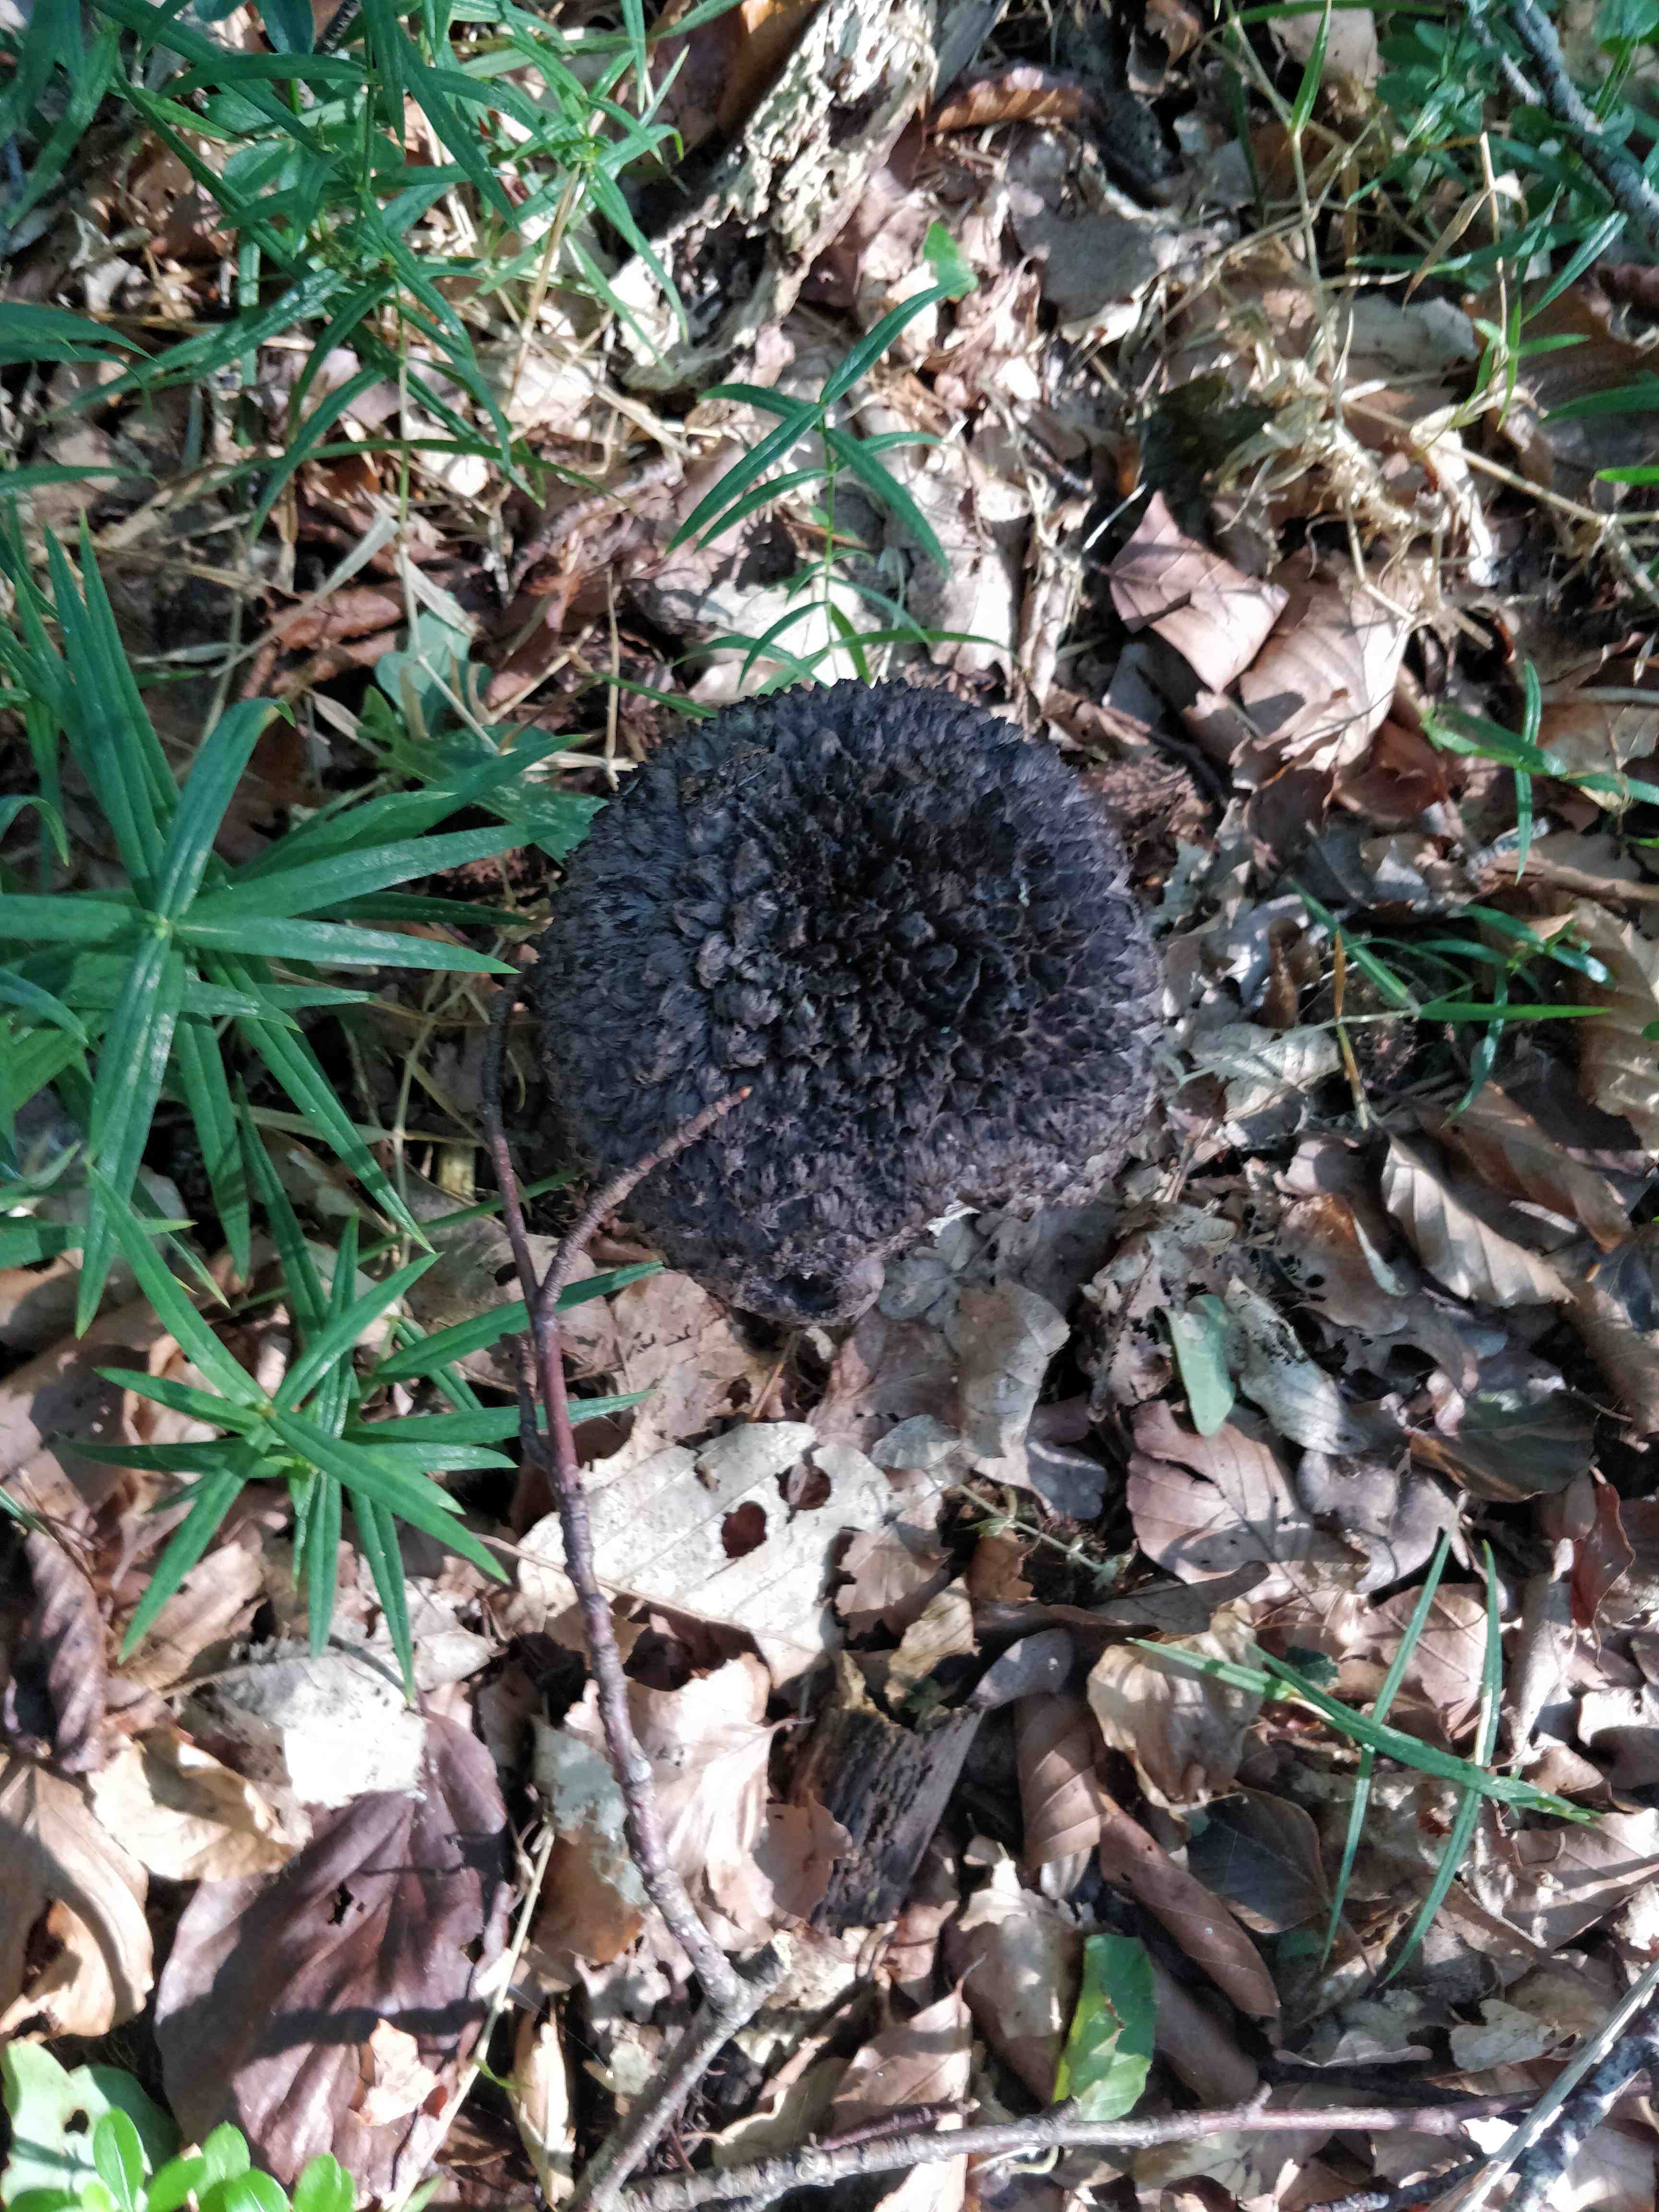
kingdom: Fungi
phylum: Basidiomycota
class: Agaricomycetes
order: Boletales
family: Boletaceae
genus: Strobilomyces
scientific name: Strobilomyces strobilaceus
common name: koglerørhat
